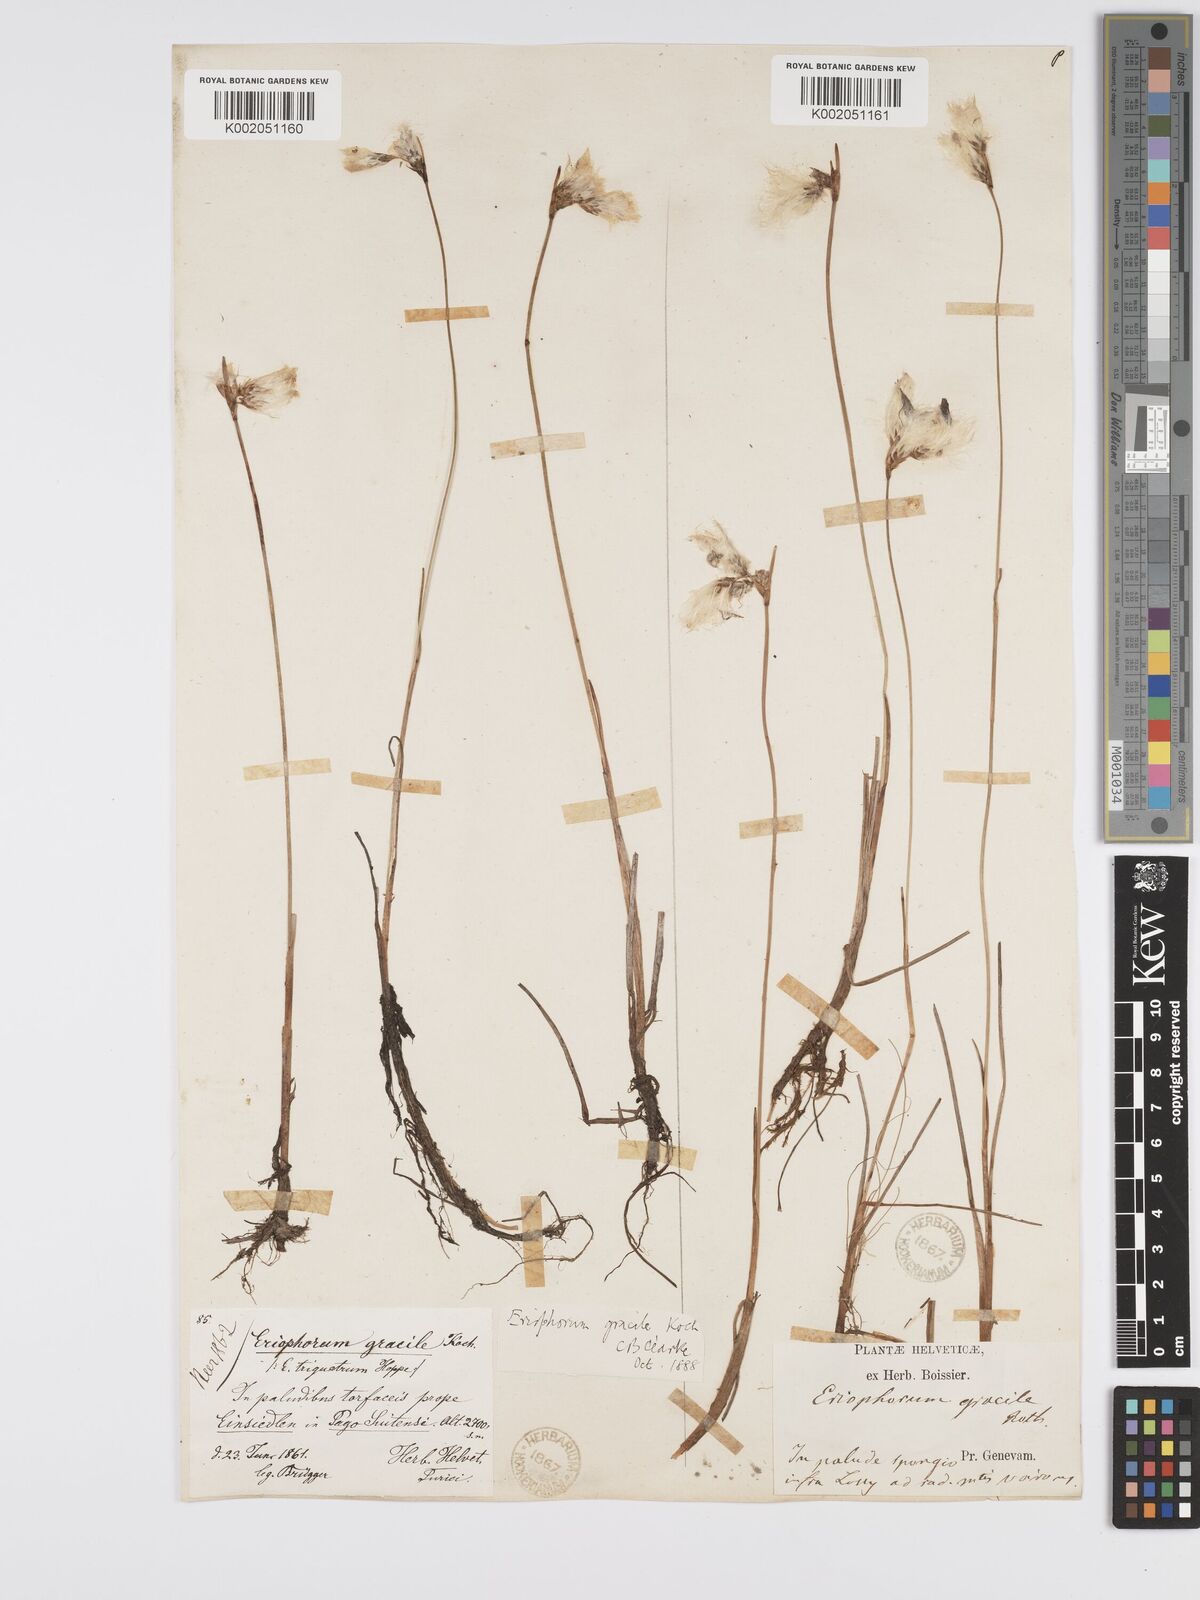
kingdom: Plantae
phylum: Tracheophyta
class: Liliopsida
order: Poales
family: Cyperaceae
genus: Eriophorum
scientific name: Eriophorum gracile
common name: Slender cottongrass
